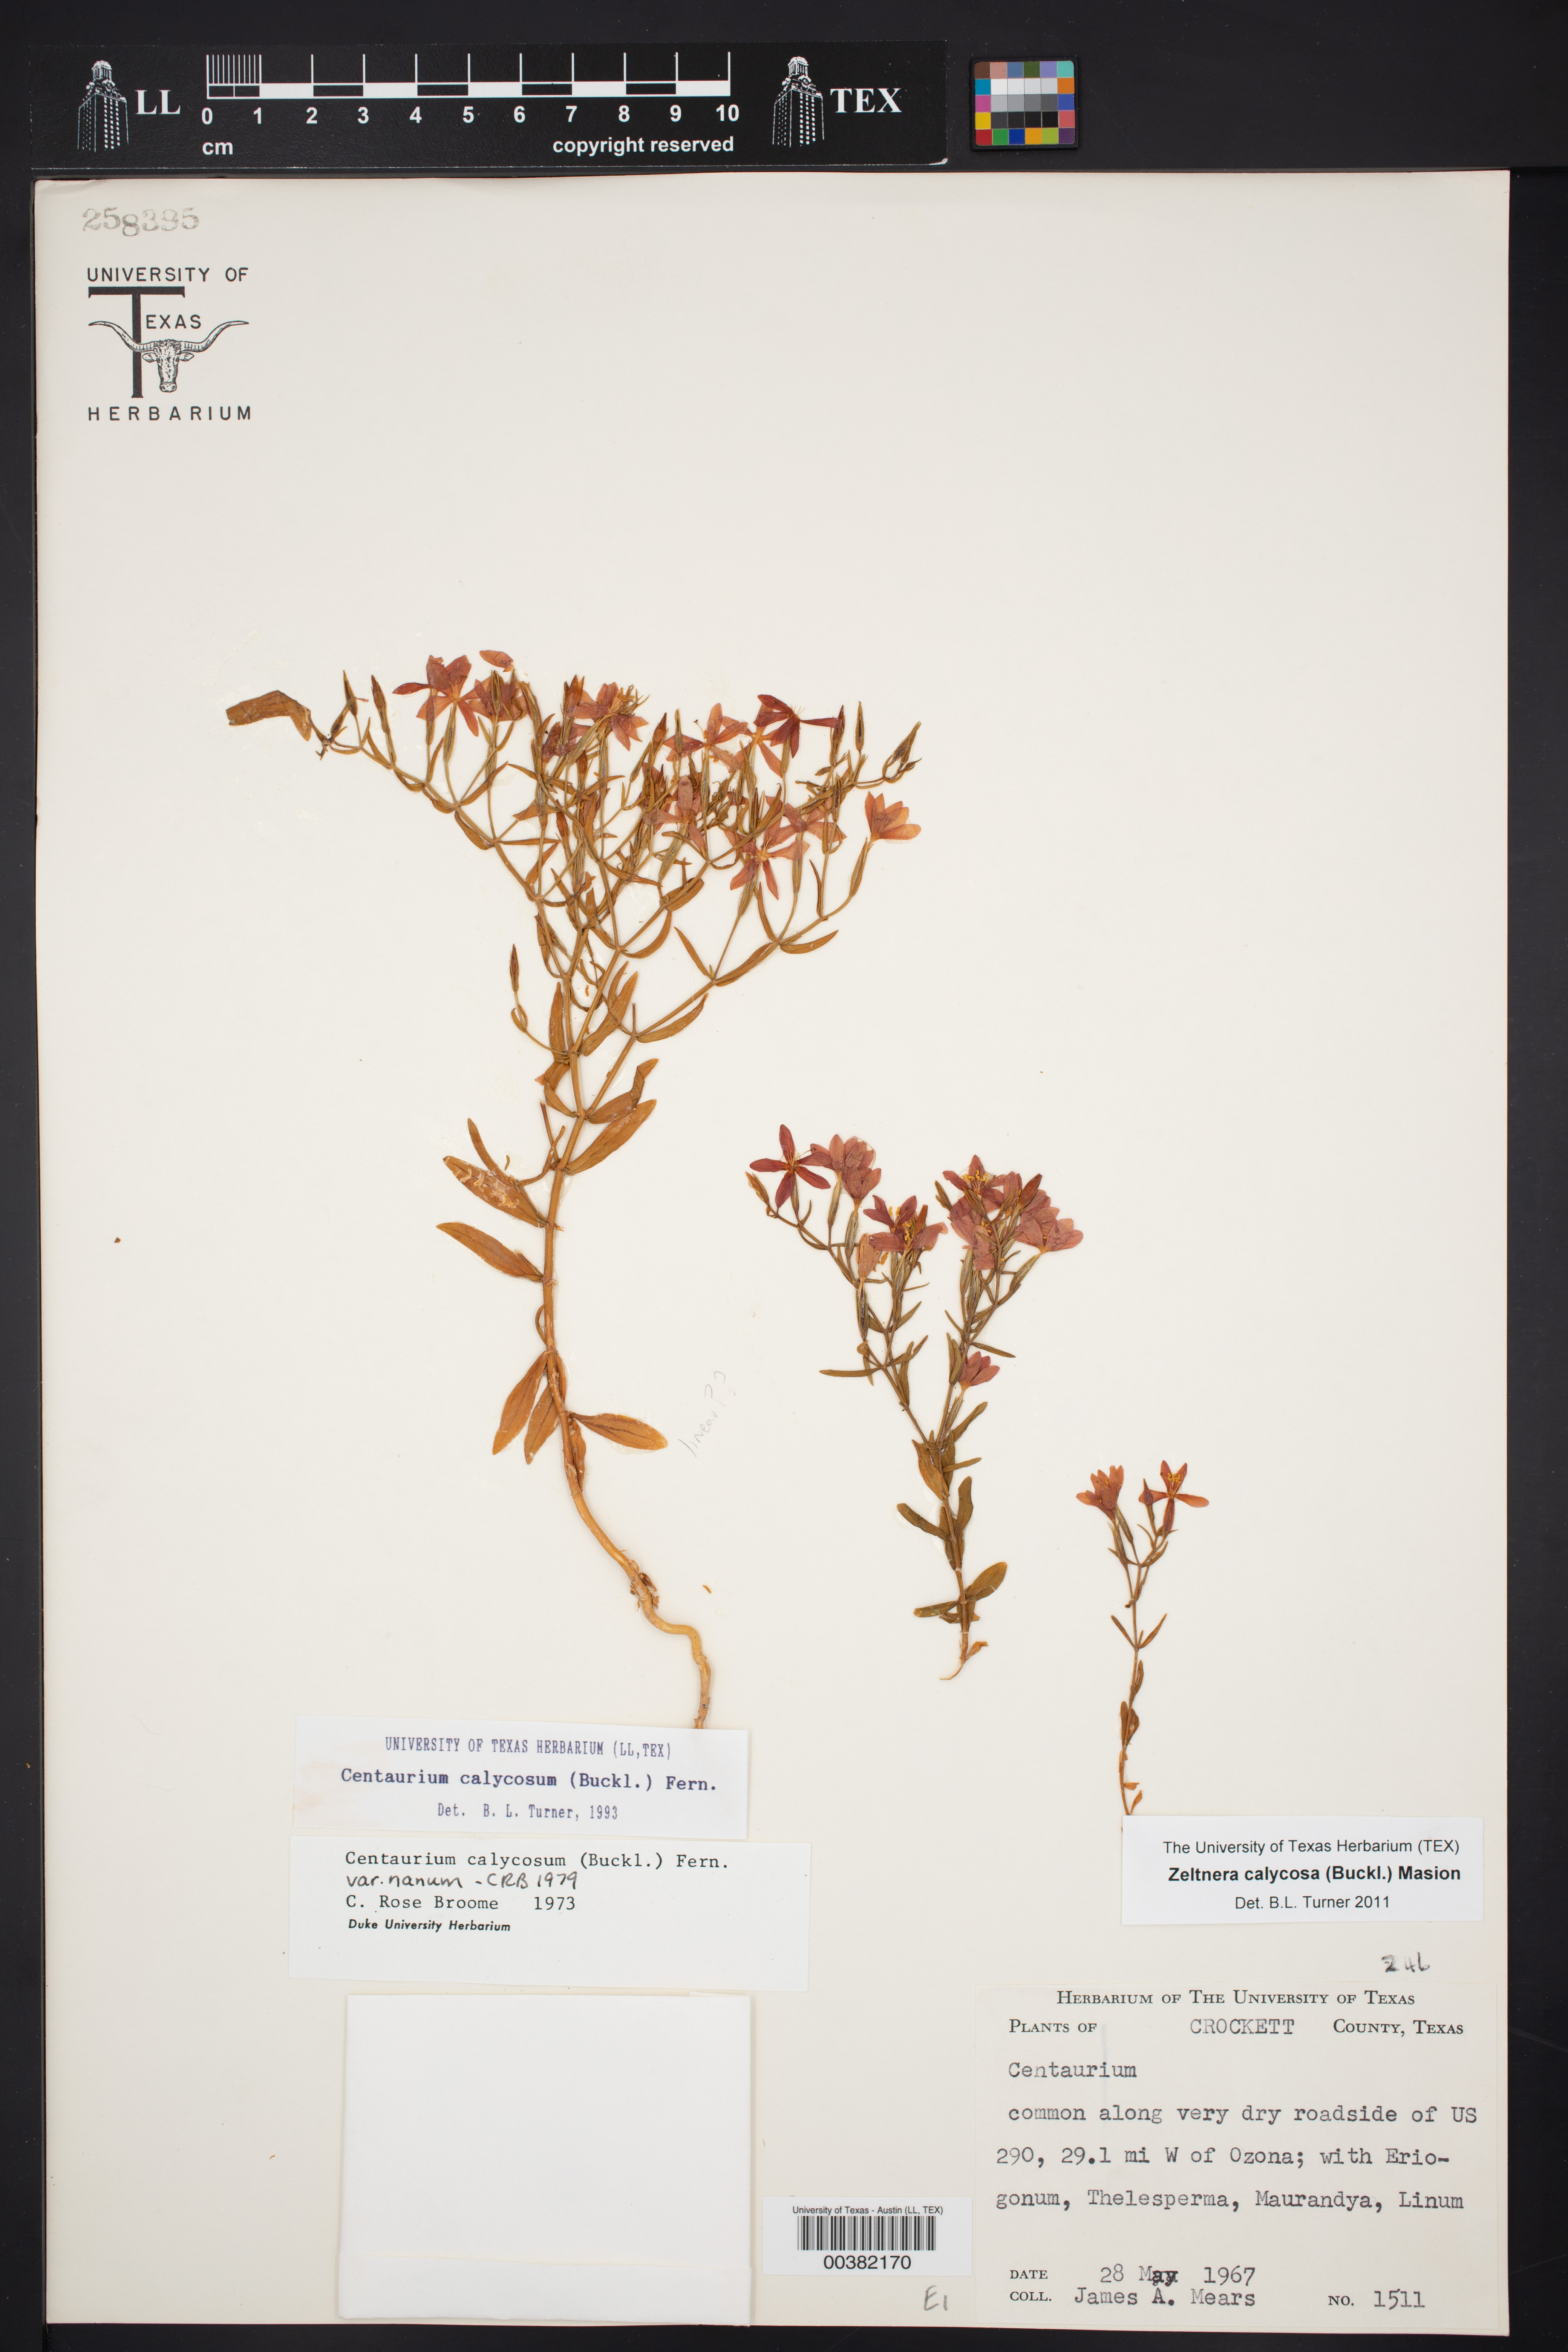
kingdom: Plantae
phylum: Tracheophyta
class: Magnoliopsida
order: Gentianales
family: Gentianaceae
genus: Zeltnera
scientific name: Zeltnera calycosa
